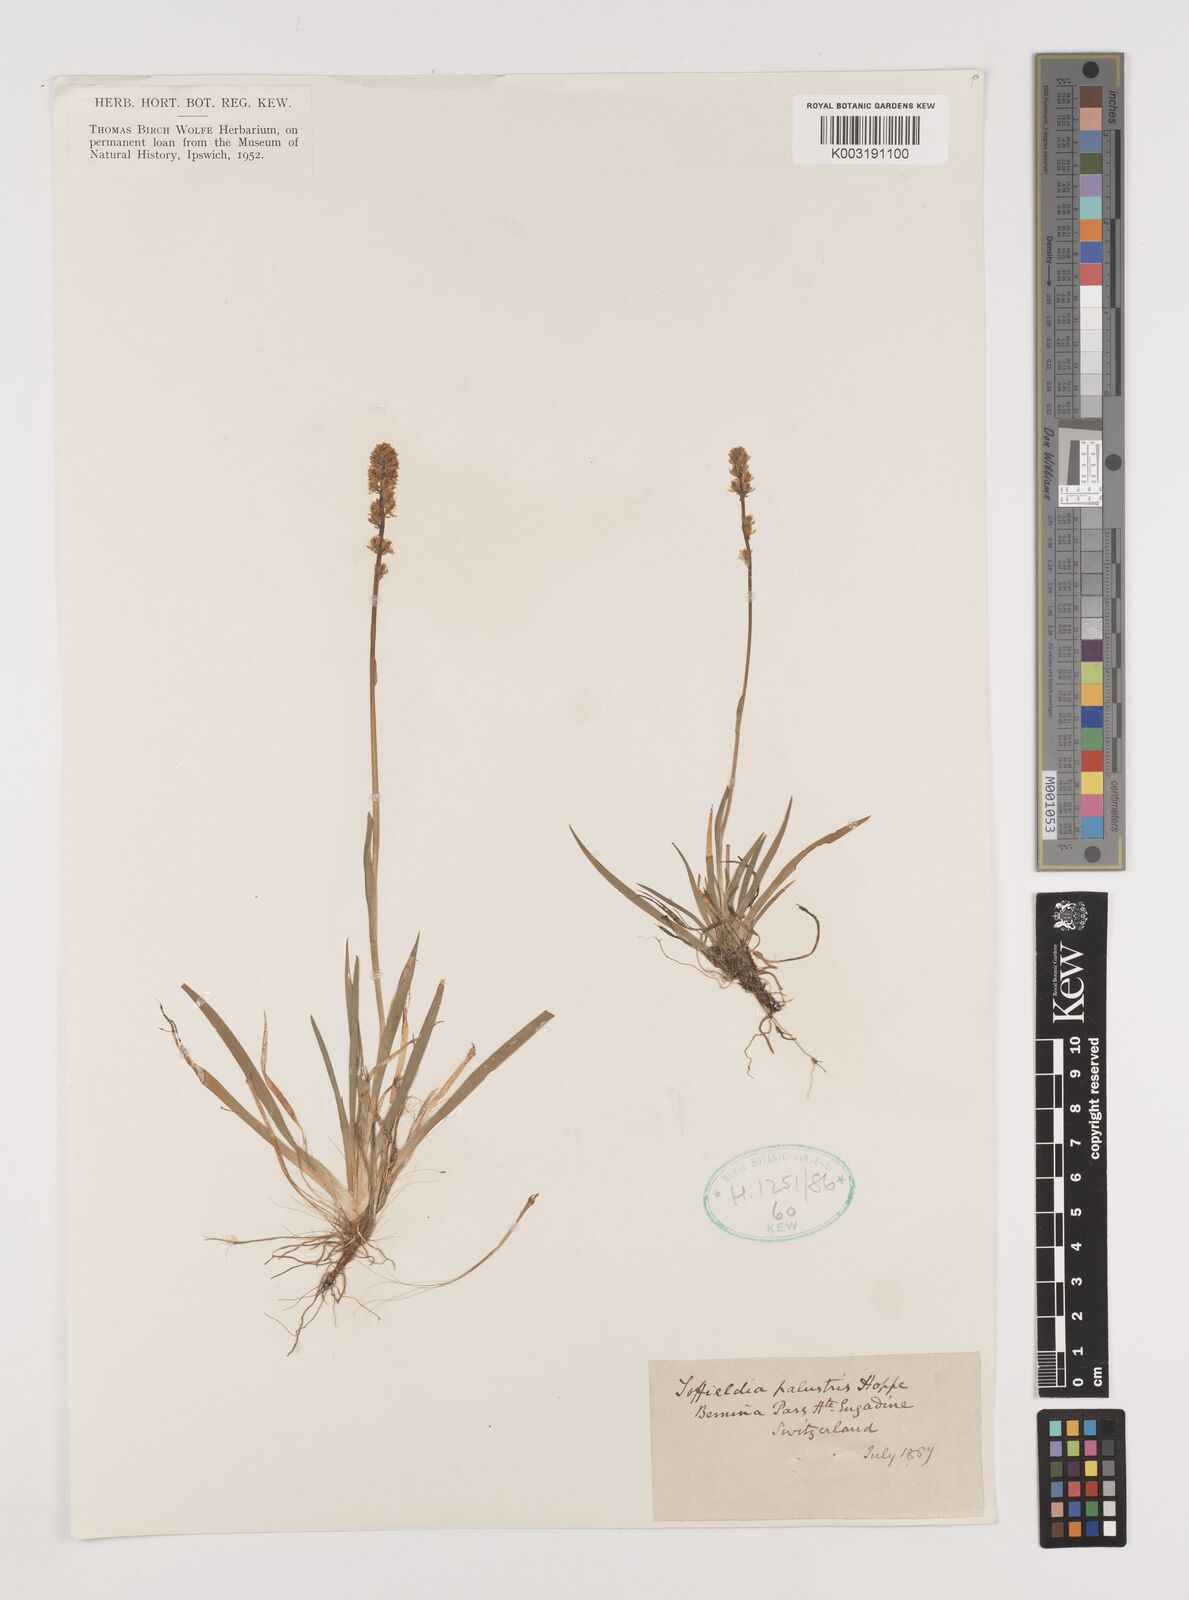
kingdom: Plantae
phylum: Tracheophyta
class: Liliopsida
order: Alismatales
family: Tofieldiaceae
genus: Tofieldia
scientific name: Tofieldia pusilla
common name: Scottish false asphodel
